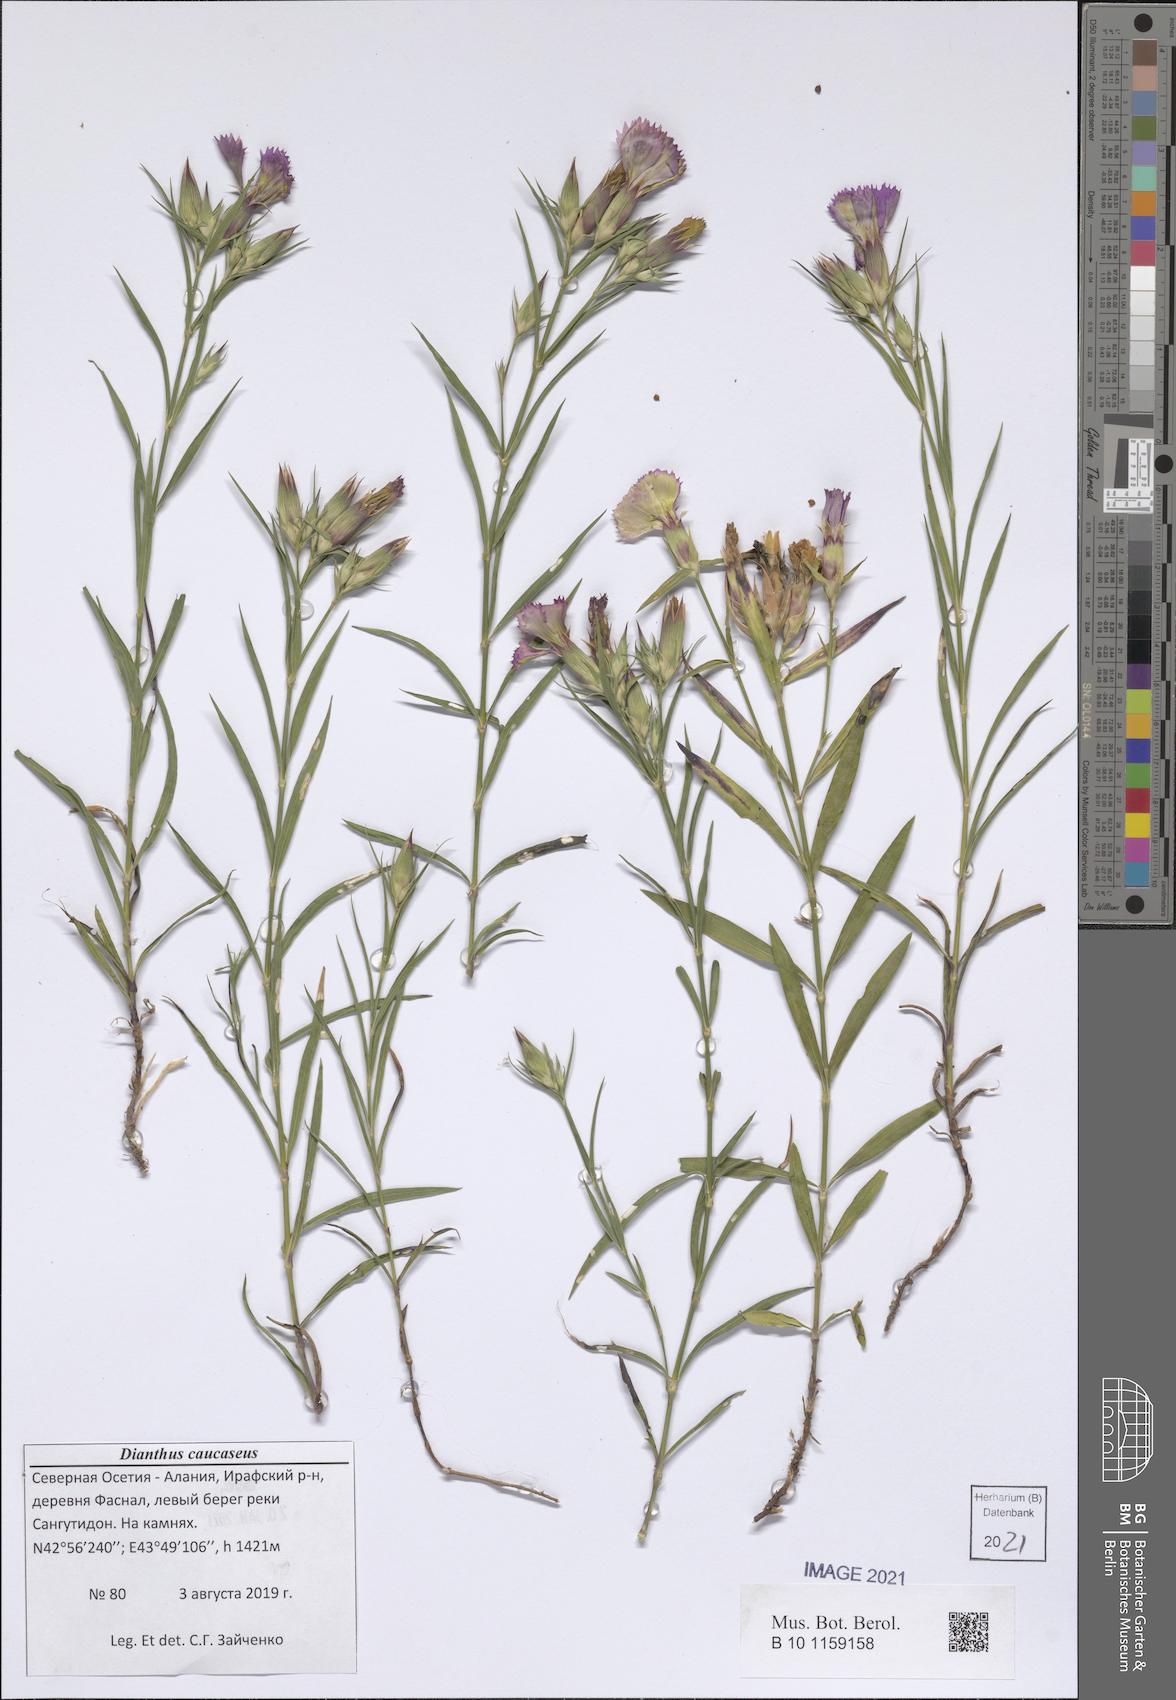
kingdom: Plantae
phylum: Tracheophyta
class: Magnoliopsida
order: Caryophyllales
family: Caryophyllaceae
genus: Dianthus
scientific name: Dianthus caucaseus
